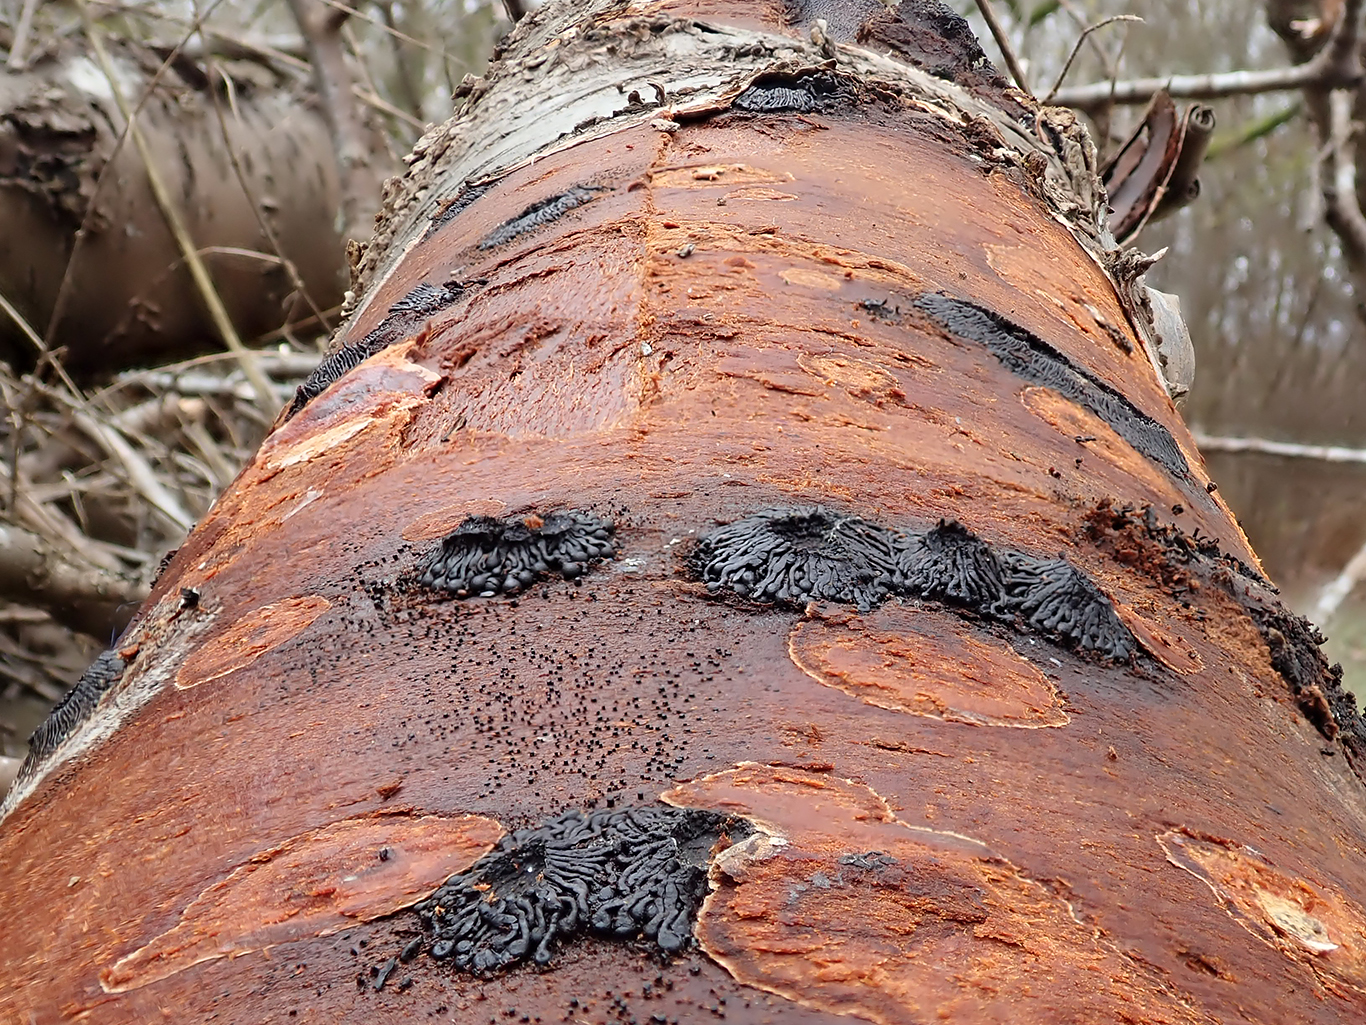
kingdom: Fungi
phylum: Ascomycota
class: Sordariomycetes
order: Calosphaeriales
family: Calosphaeriaceae
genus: Calosphaeria
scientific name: Calosphaeria pulchella
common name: smuk slyngkerne
